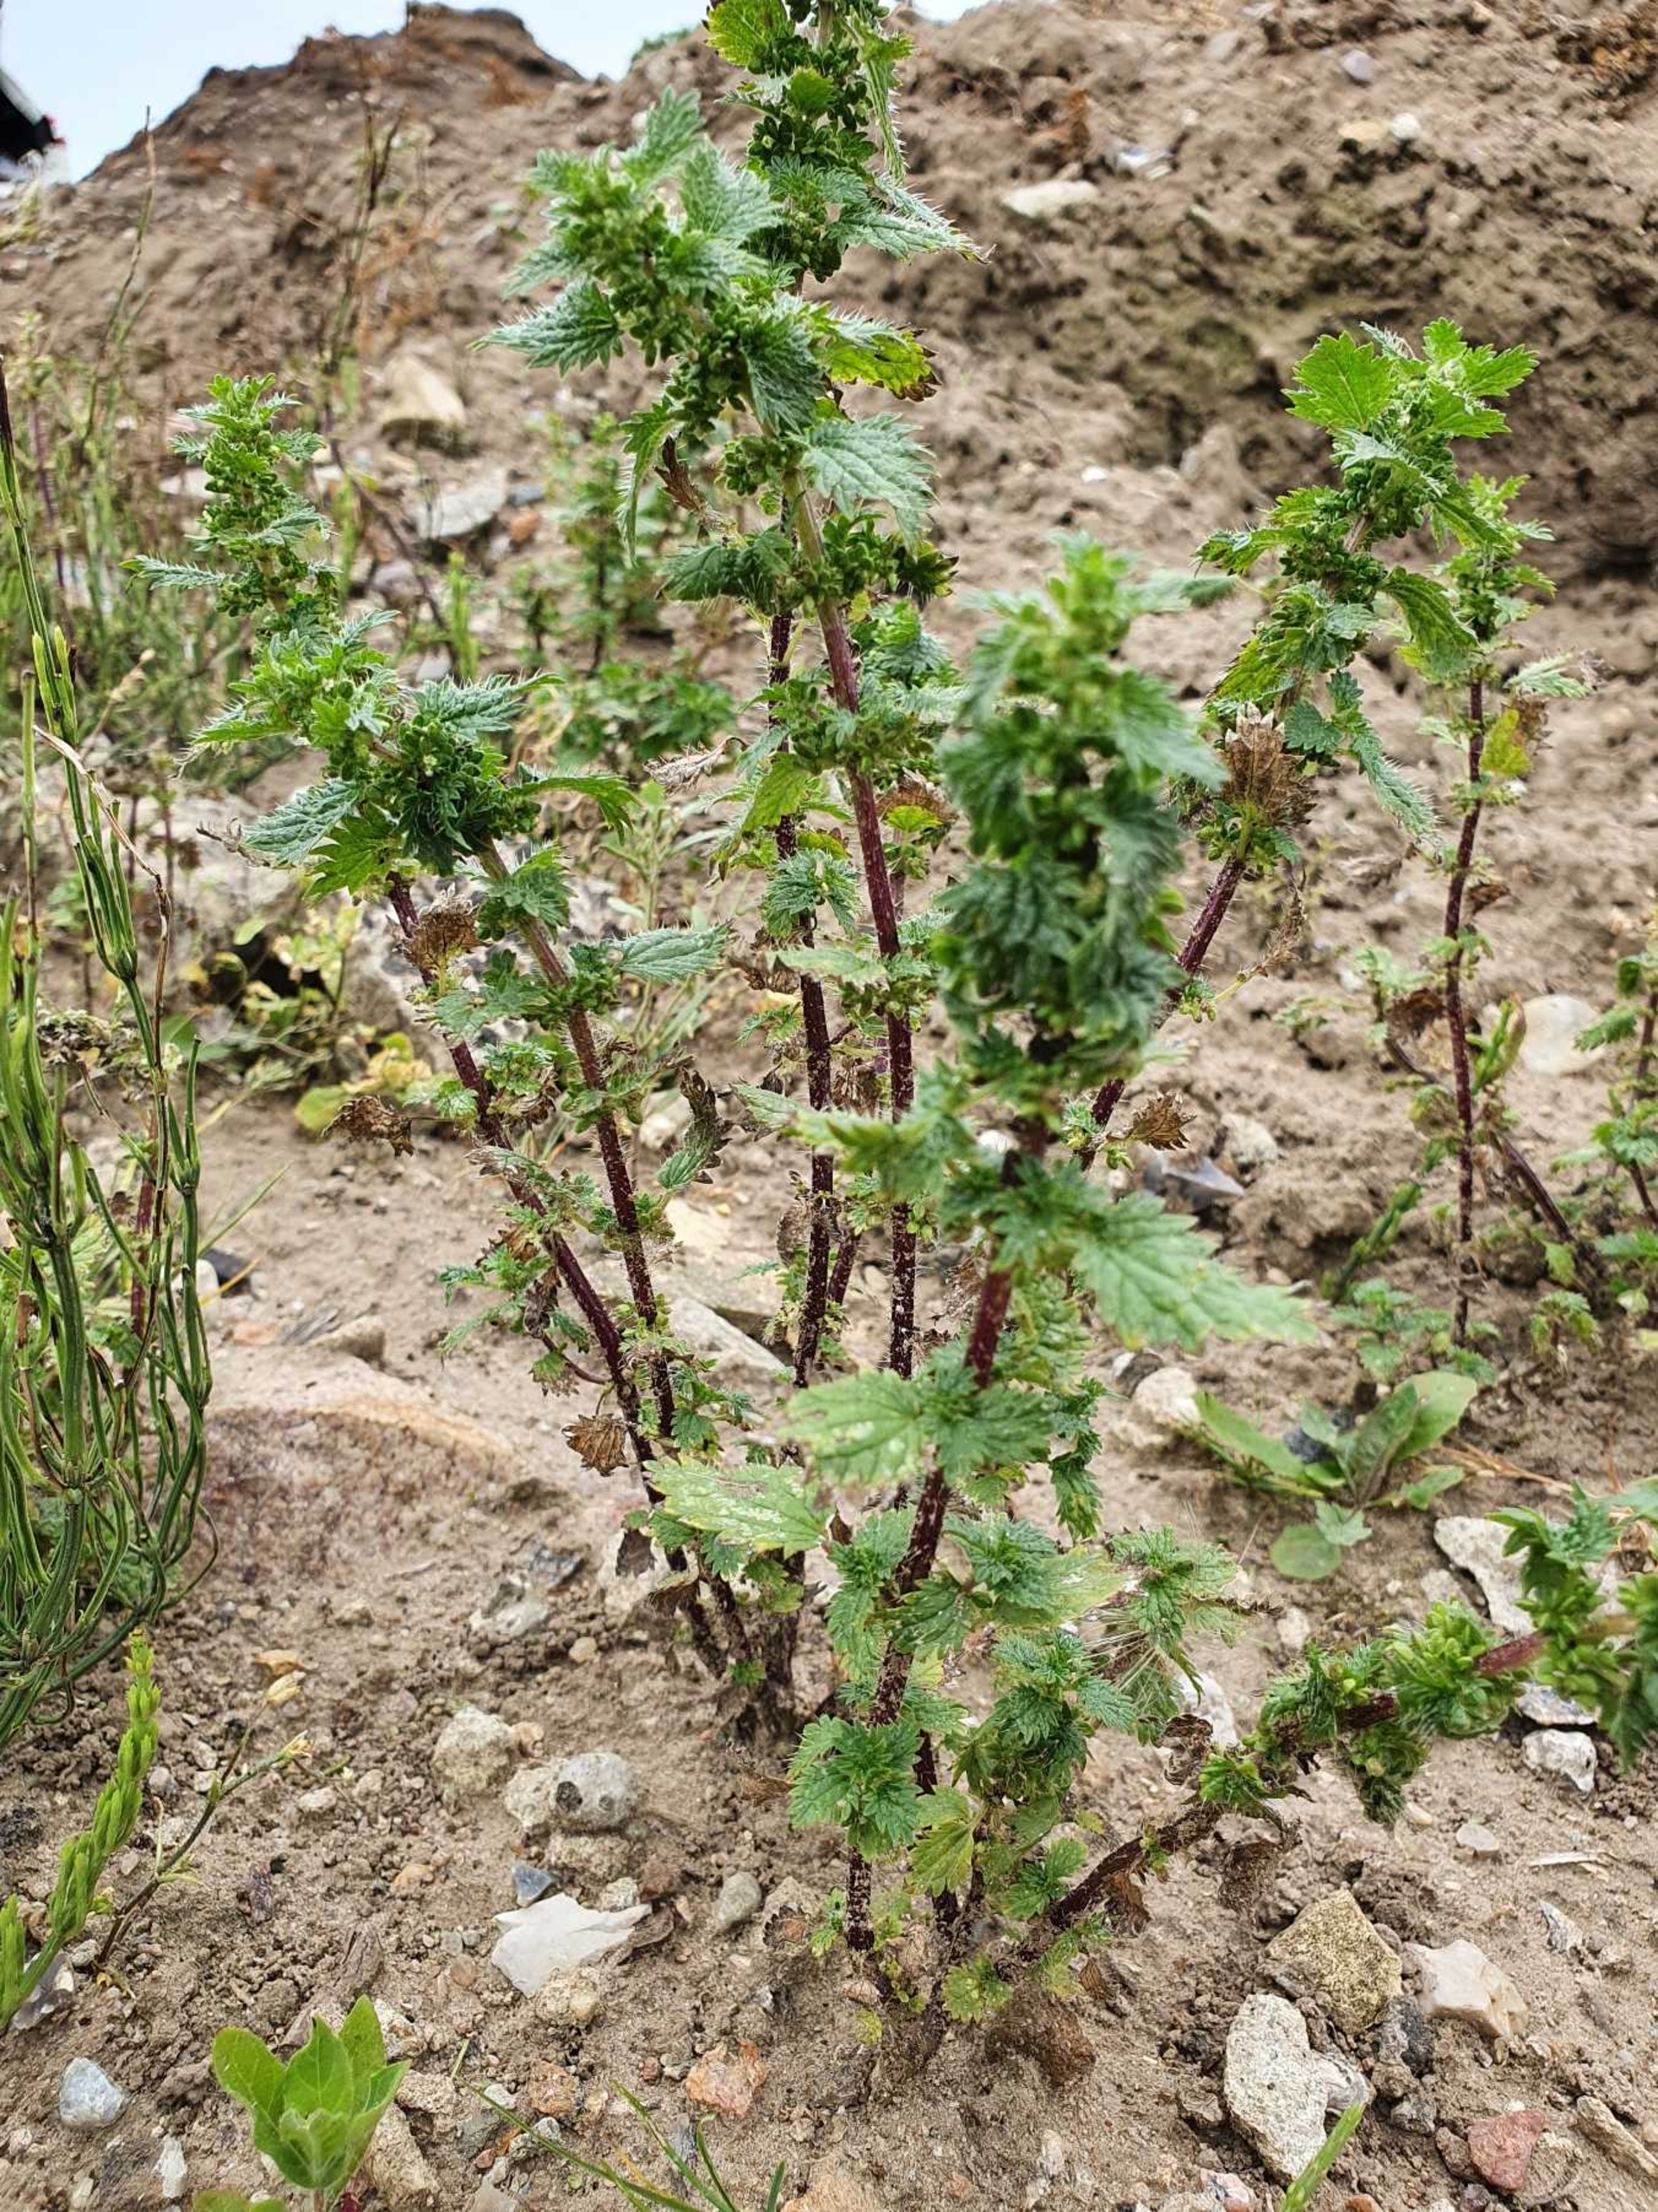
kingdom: Plantae
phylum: Tracheophyta
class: Magnoliopsida
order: Rosales
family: Urticaceae
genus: Urtica
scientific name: Urtica urens
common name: Liden nælde
